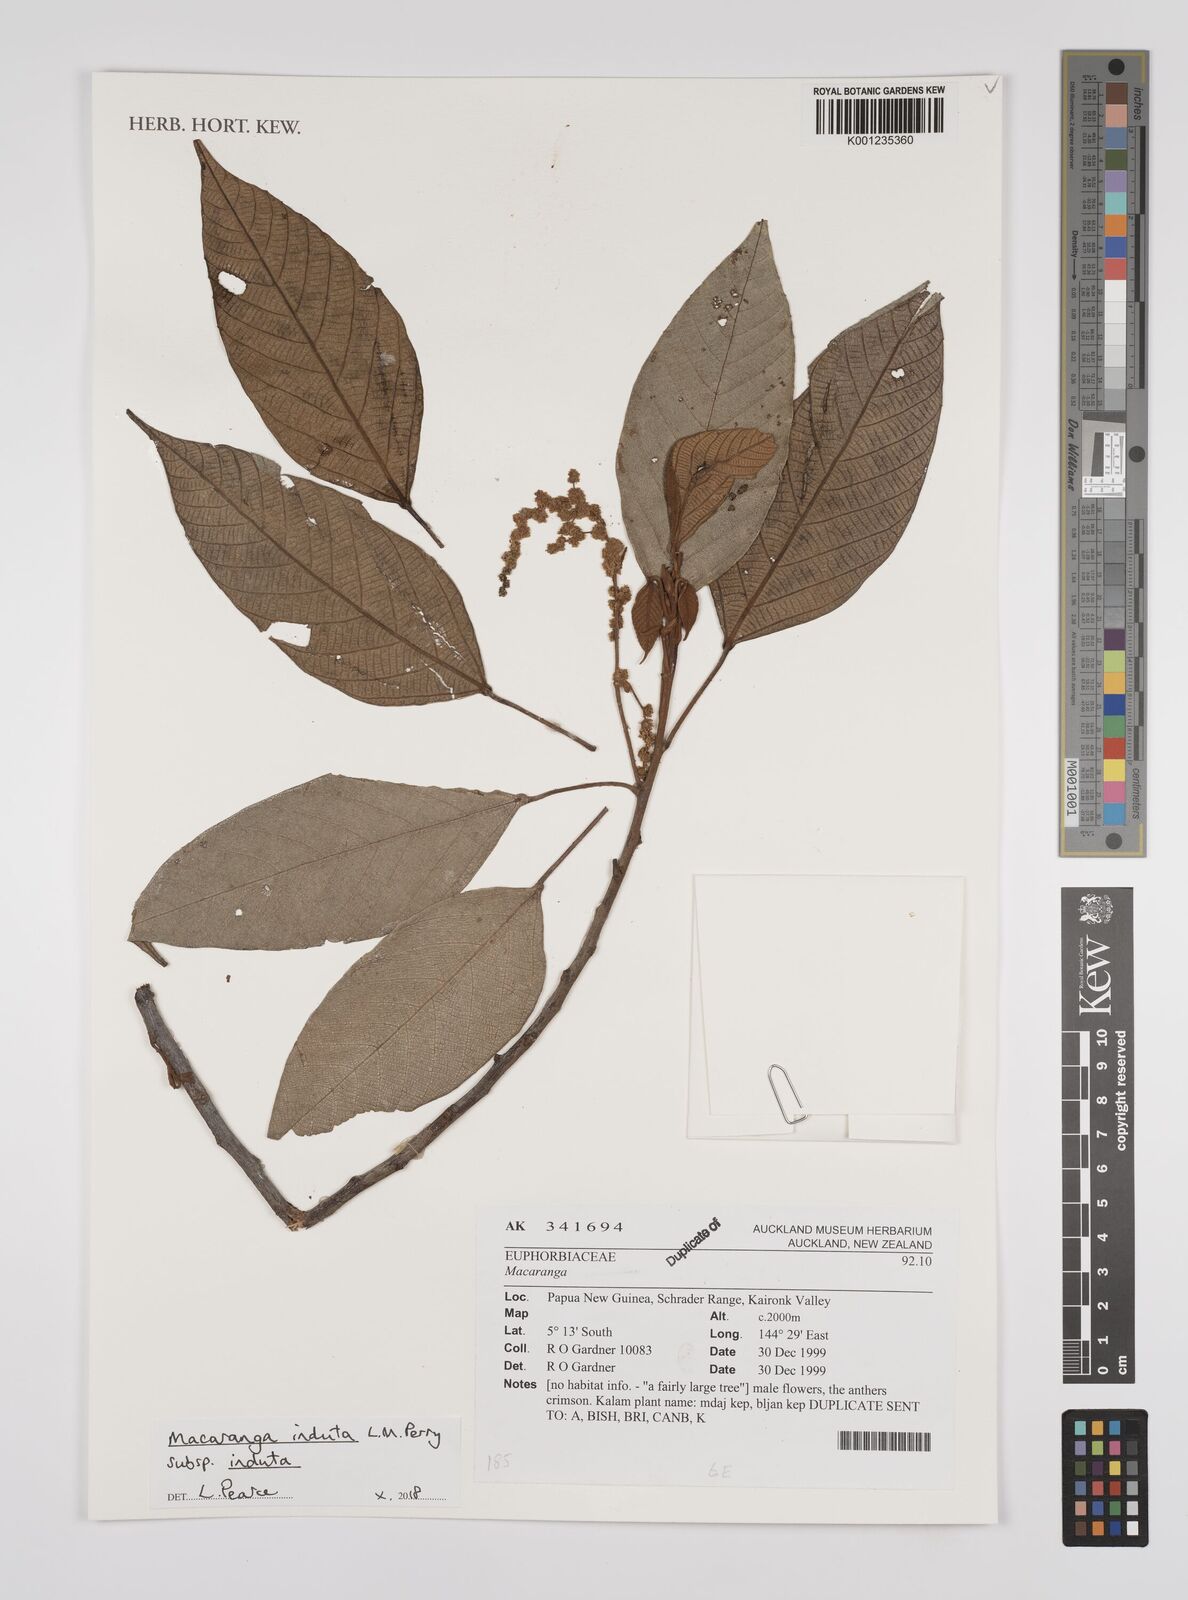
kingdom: Plantae
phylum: Tracheophyta
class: Magnoliopsida
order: Malpighiales
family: Euphorbiaceae
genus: Macaranga
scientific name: Macaranga induta
